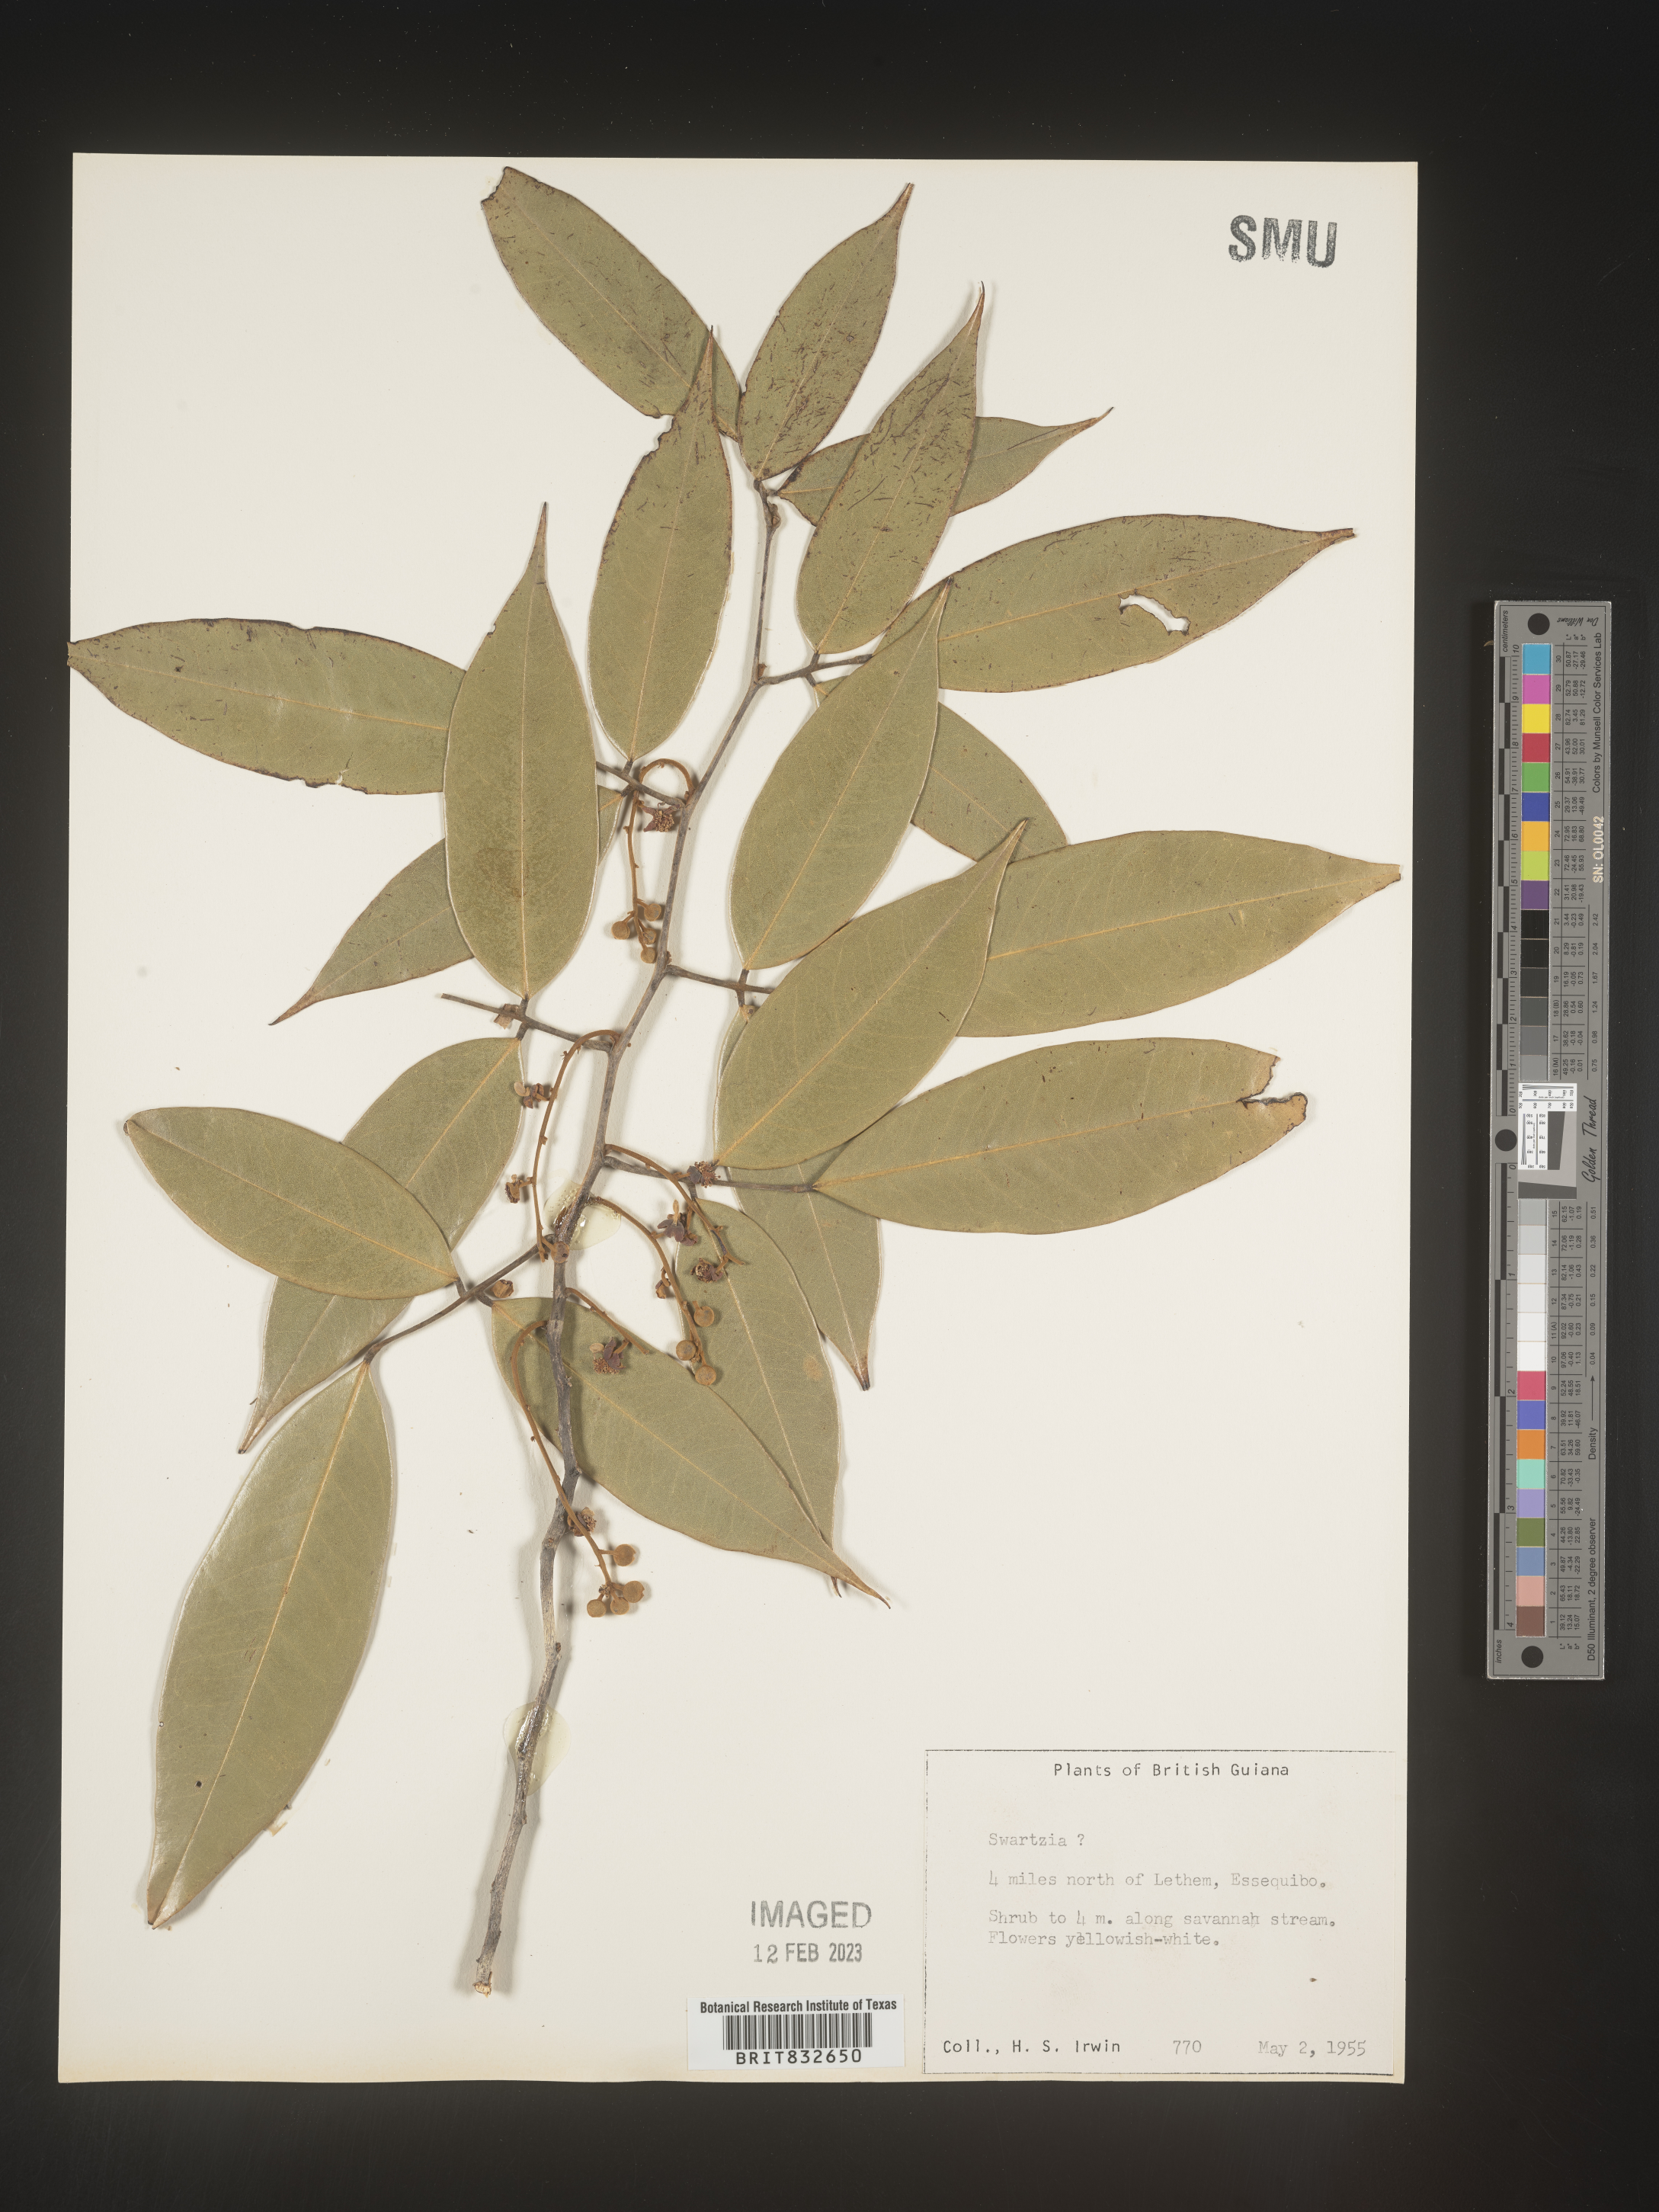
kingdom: Plantae
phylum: Tracheophyta
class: Magnoliopsida
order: Fabales
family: Fabaceae
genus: Swartzia
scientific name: Swartzia
